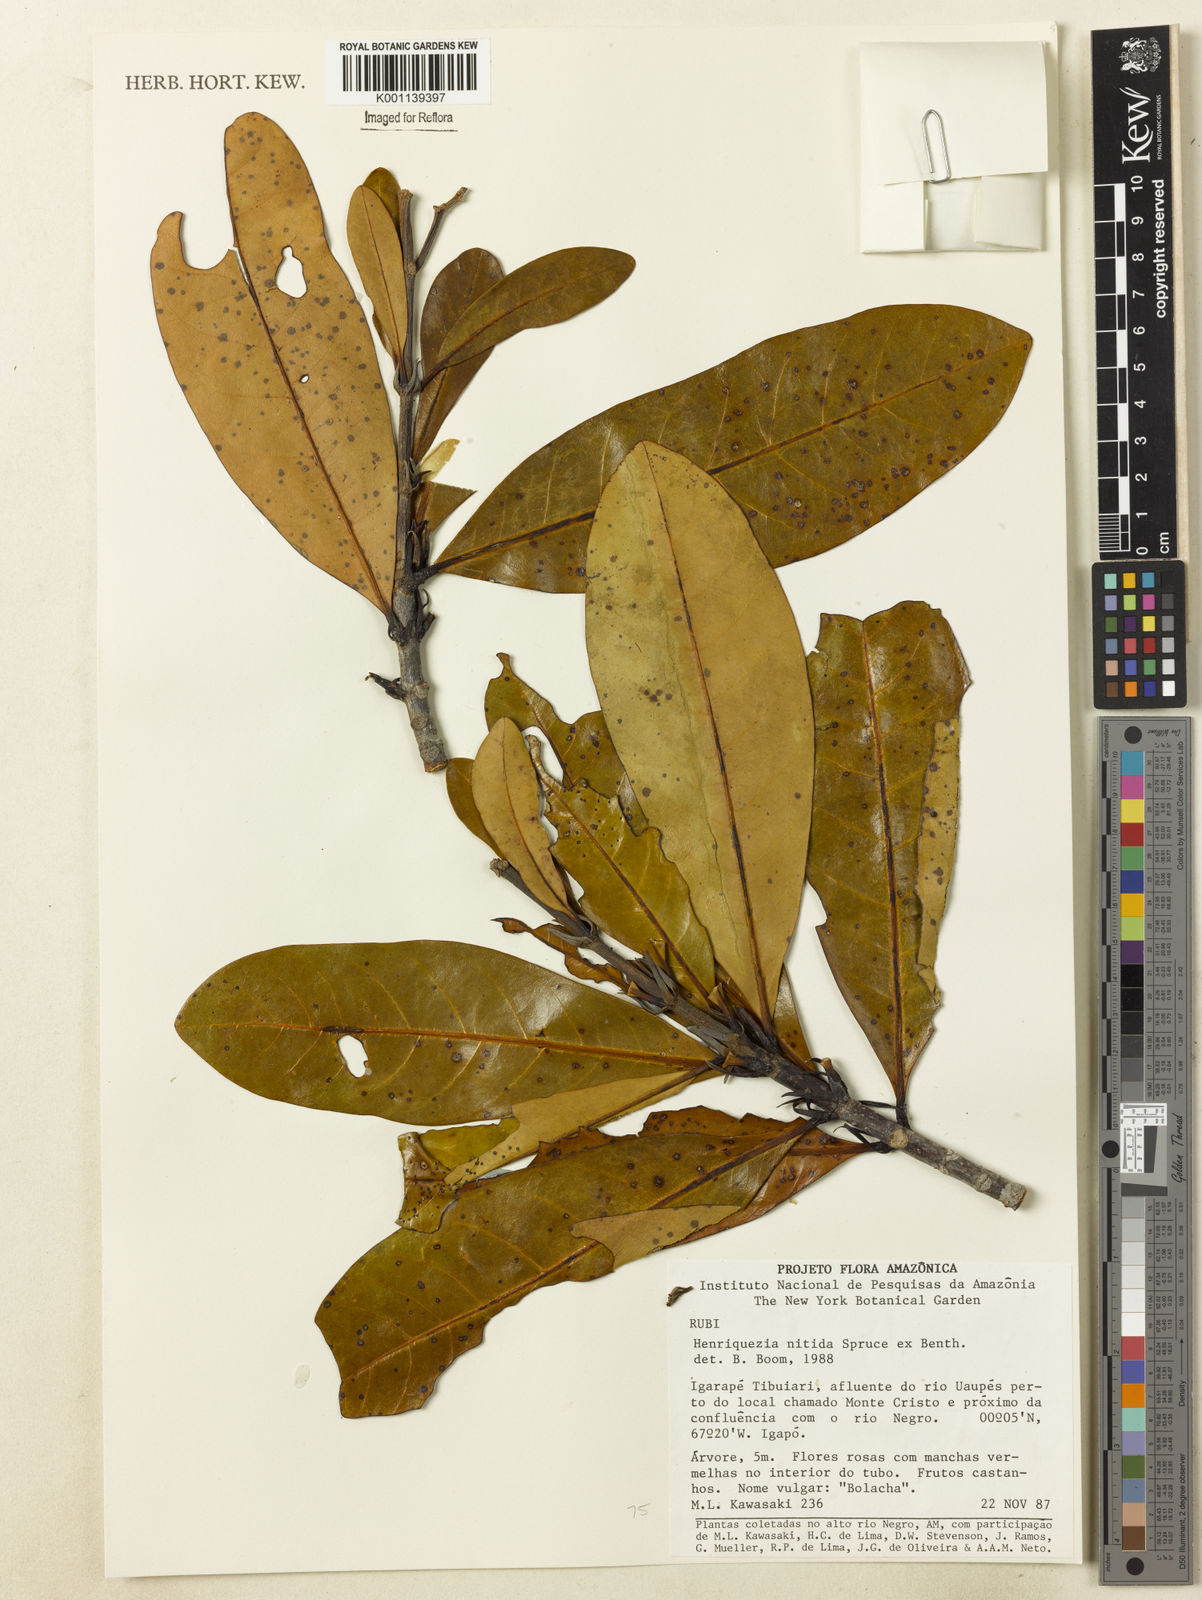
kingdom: Plantae
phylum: Tracheophyta
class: Magnoliopsida
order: Gentianales
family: Rubiaceae
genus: Henriquezia
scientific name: Henriquezia nitida
